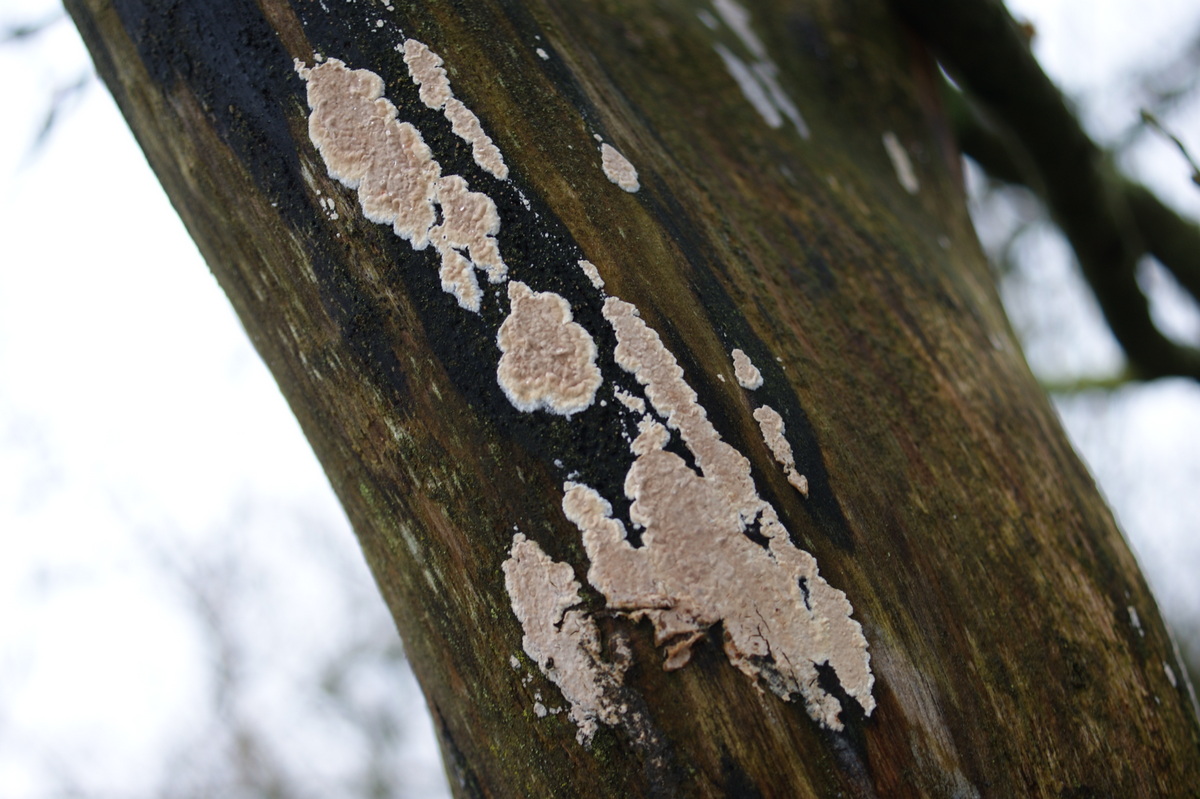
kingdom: Fungi
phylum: Basidiomycota
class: Agaricomycetes
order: Agaricales
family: Physalacriaceae
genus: Cylindrobasidium
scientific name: Cylindrobasidium evolvens
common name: sprækkehinde
